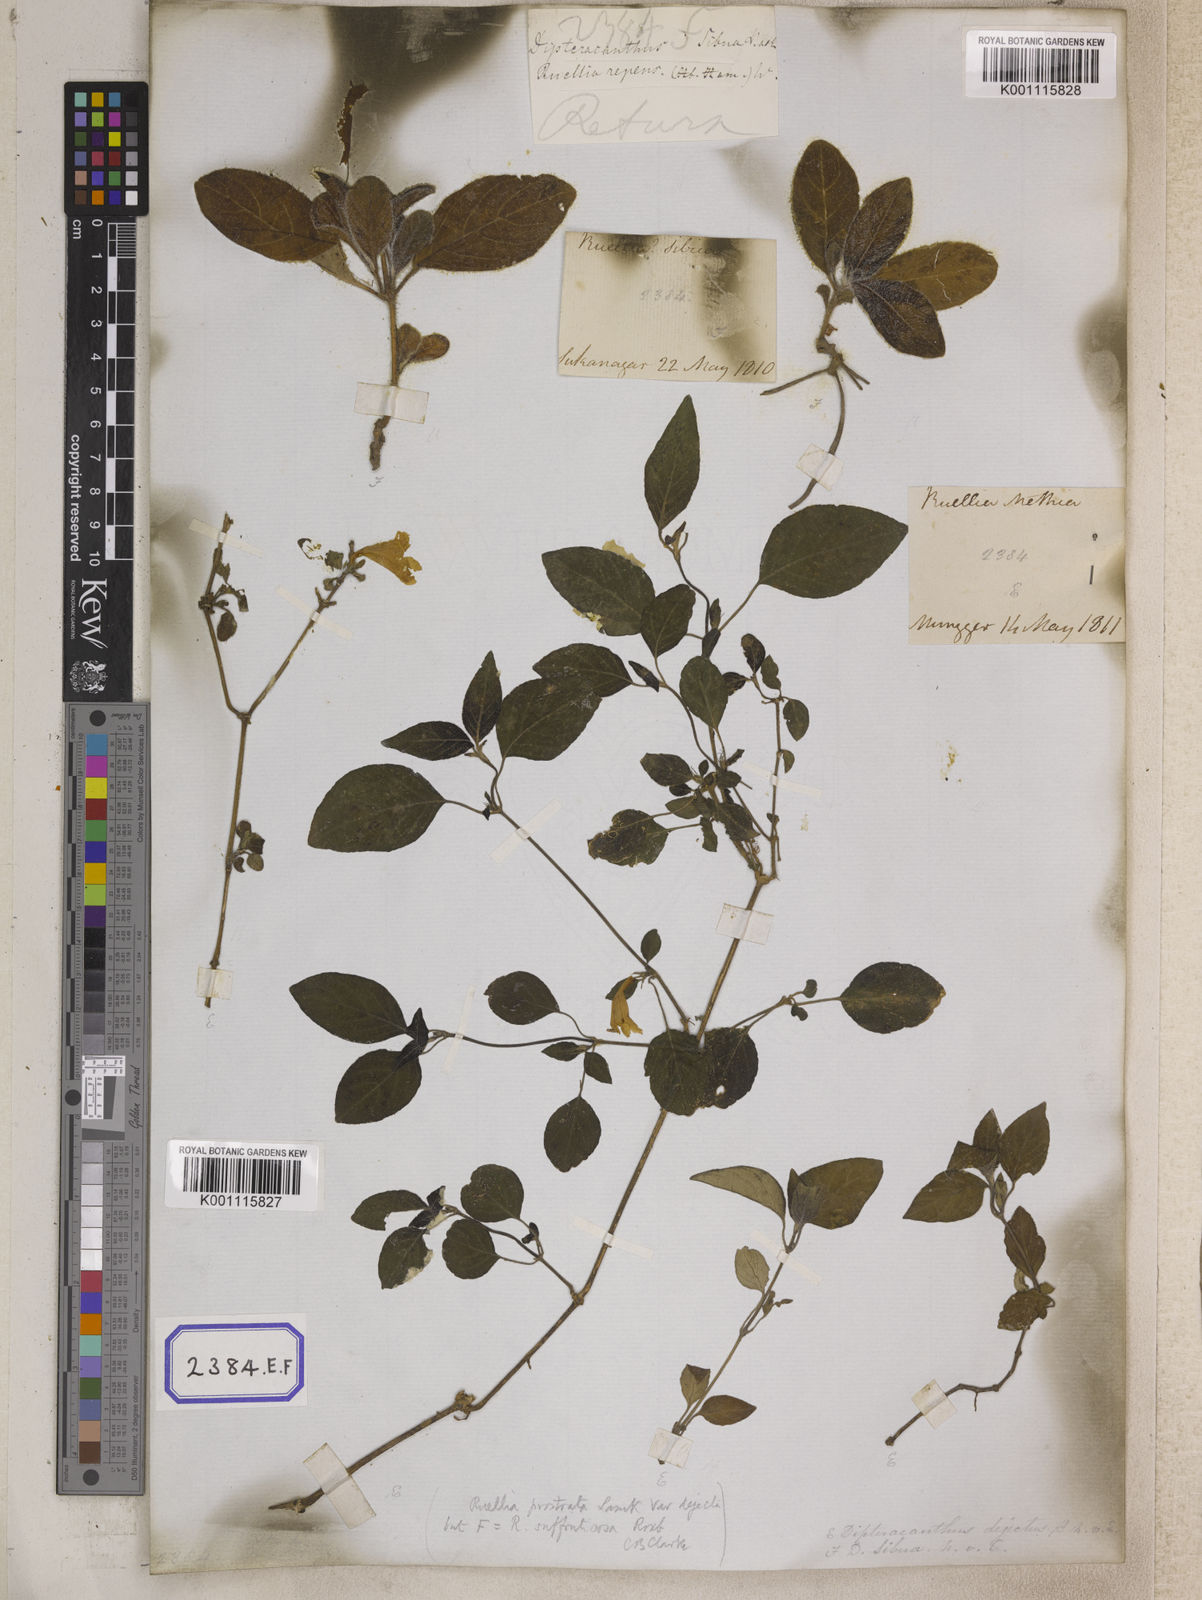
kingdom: Plantae
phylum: Tracheophyta
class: Magnoliopsida
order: Lamiales
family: Acanthaceae
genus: Ruellia
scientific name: Ruellia prostrata
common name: Prostrate wild petunia
